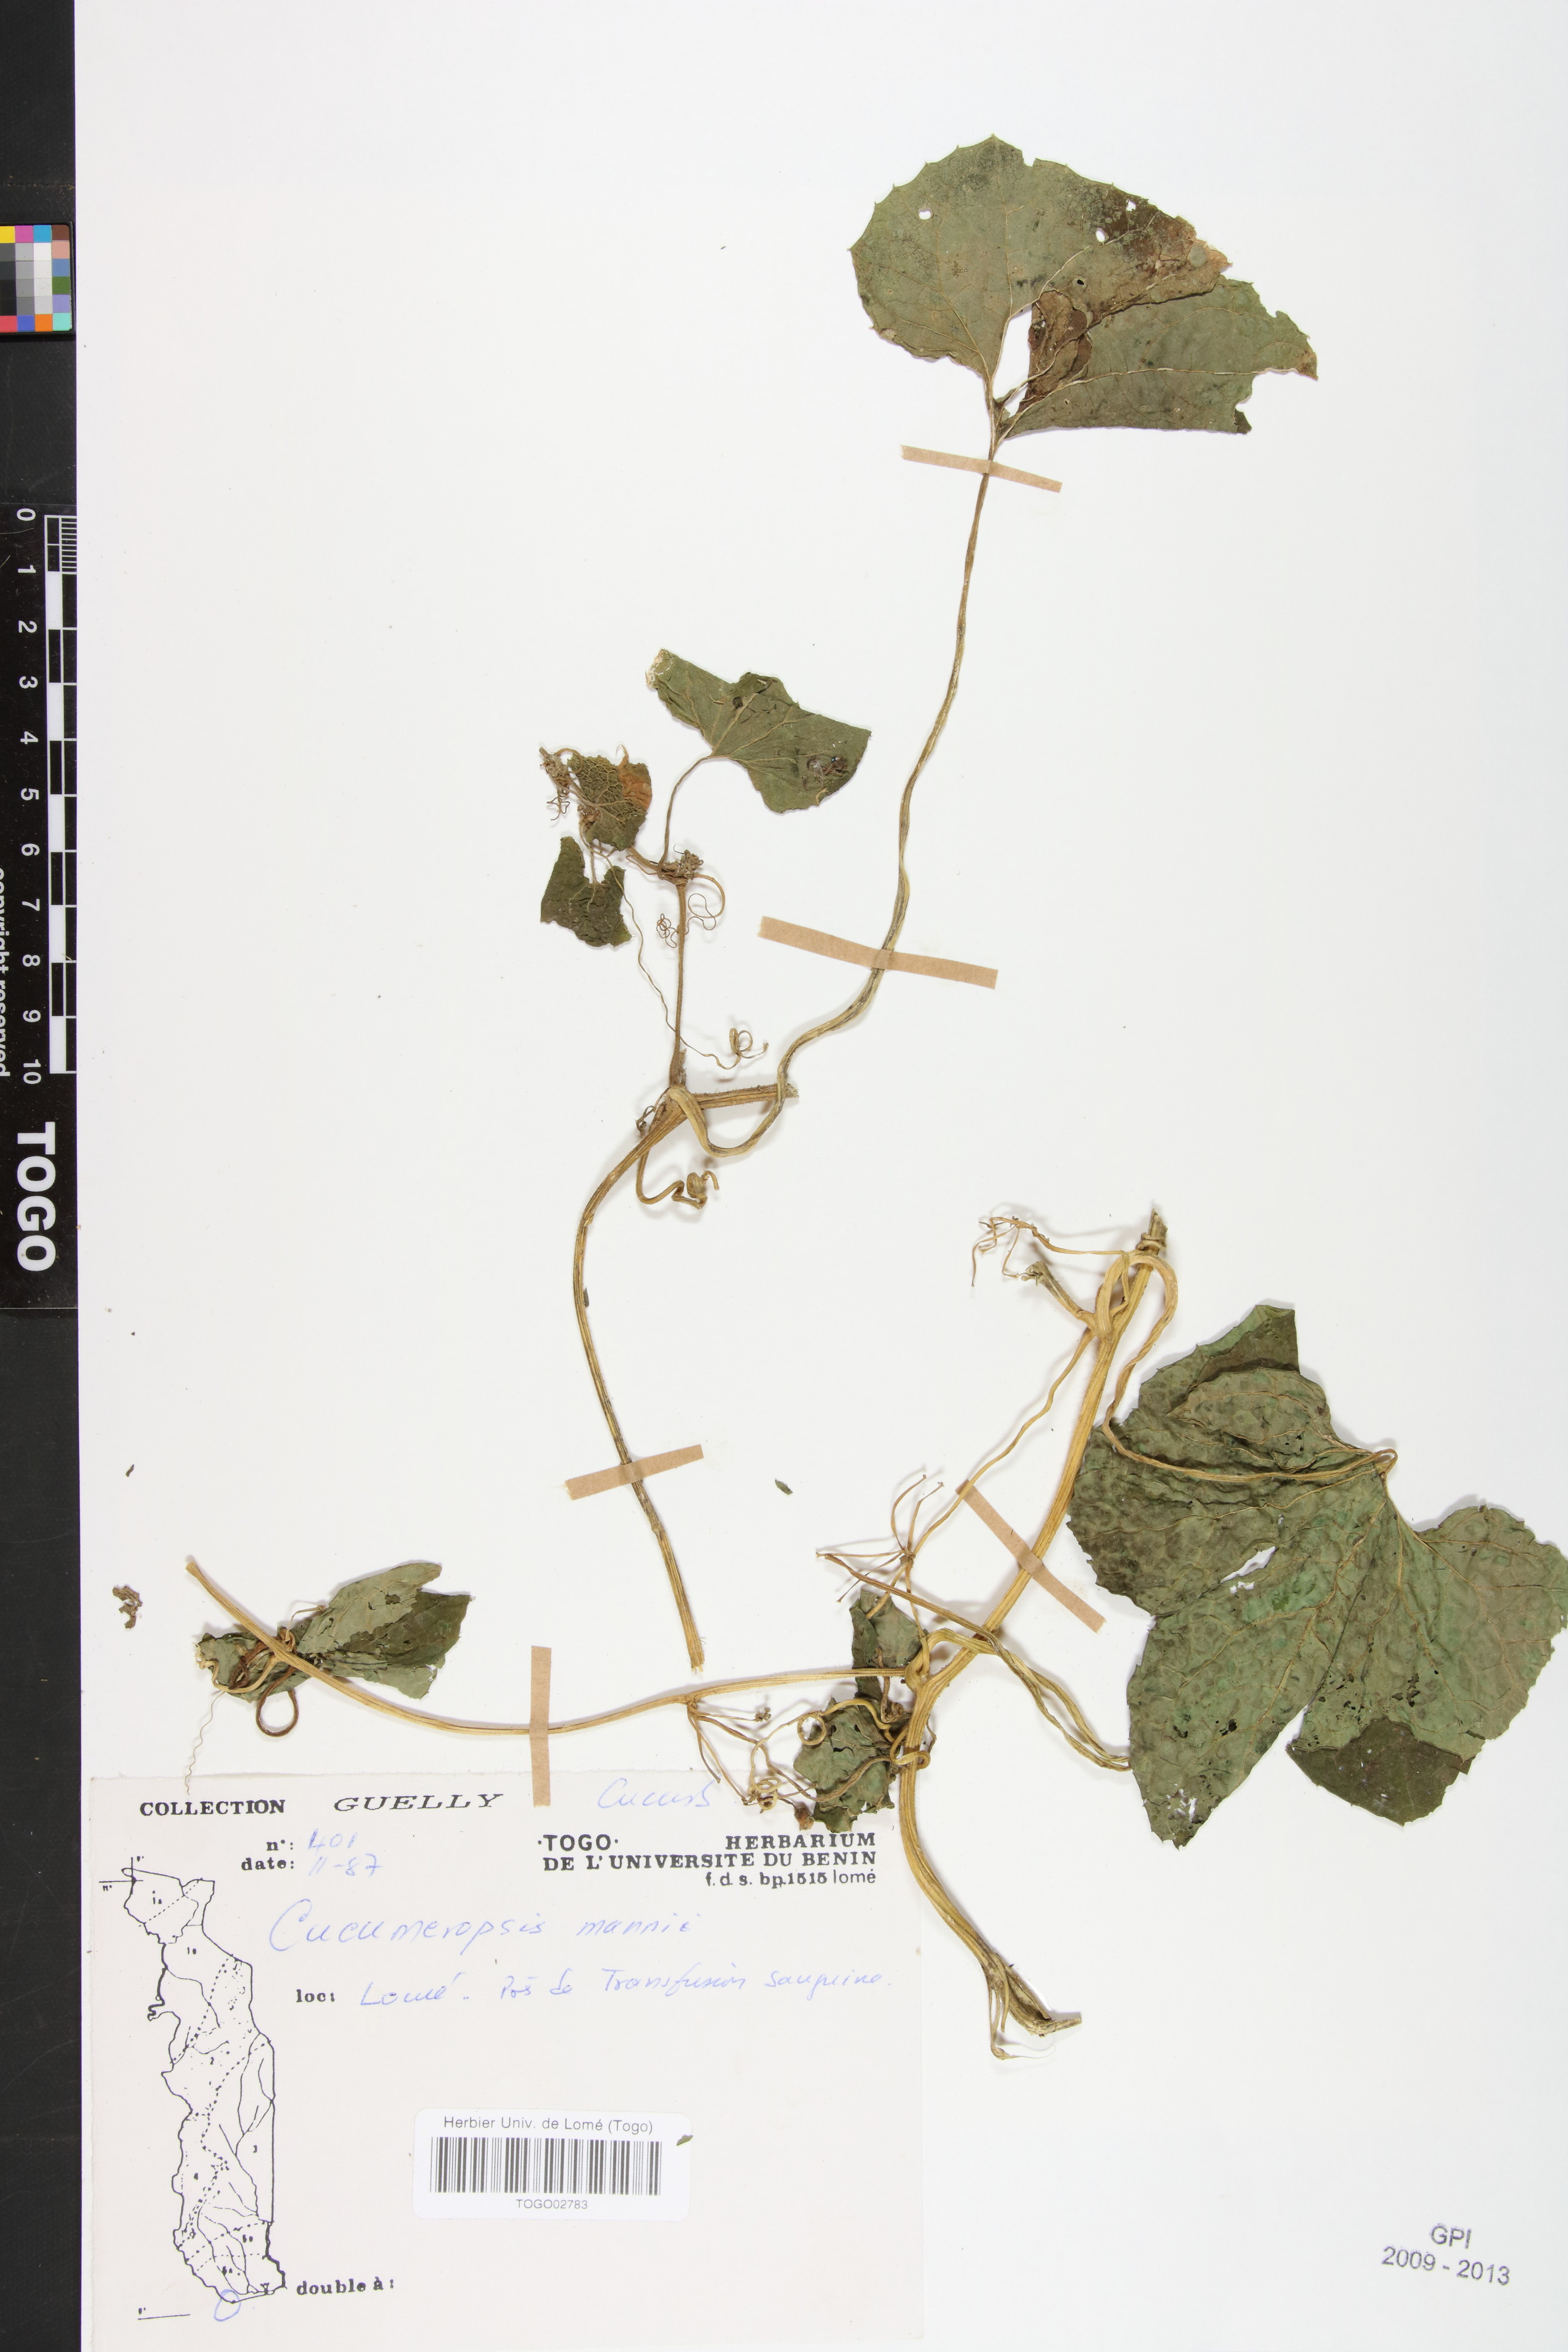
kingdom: Plantae
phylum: Tracheophyta
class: Magnoliopsida
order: Cucurbitales
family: Cucurbitaceae
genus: Melothria
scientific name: Melothria sphaerocarpa
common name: Egusi-itoo
